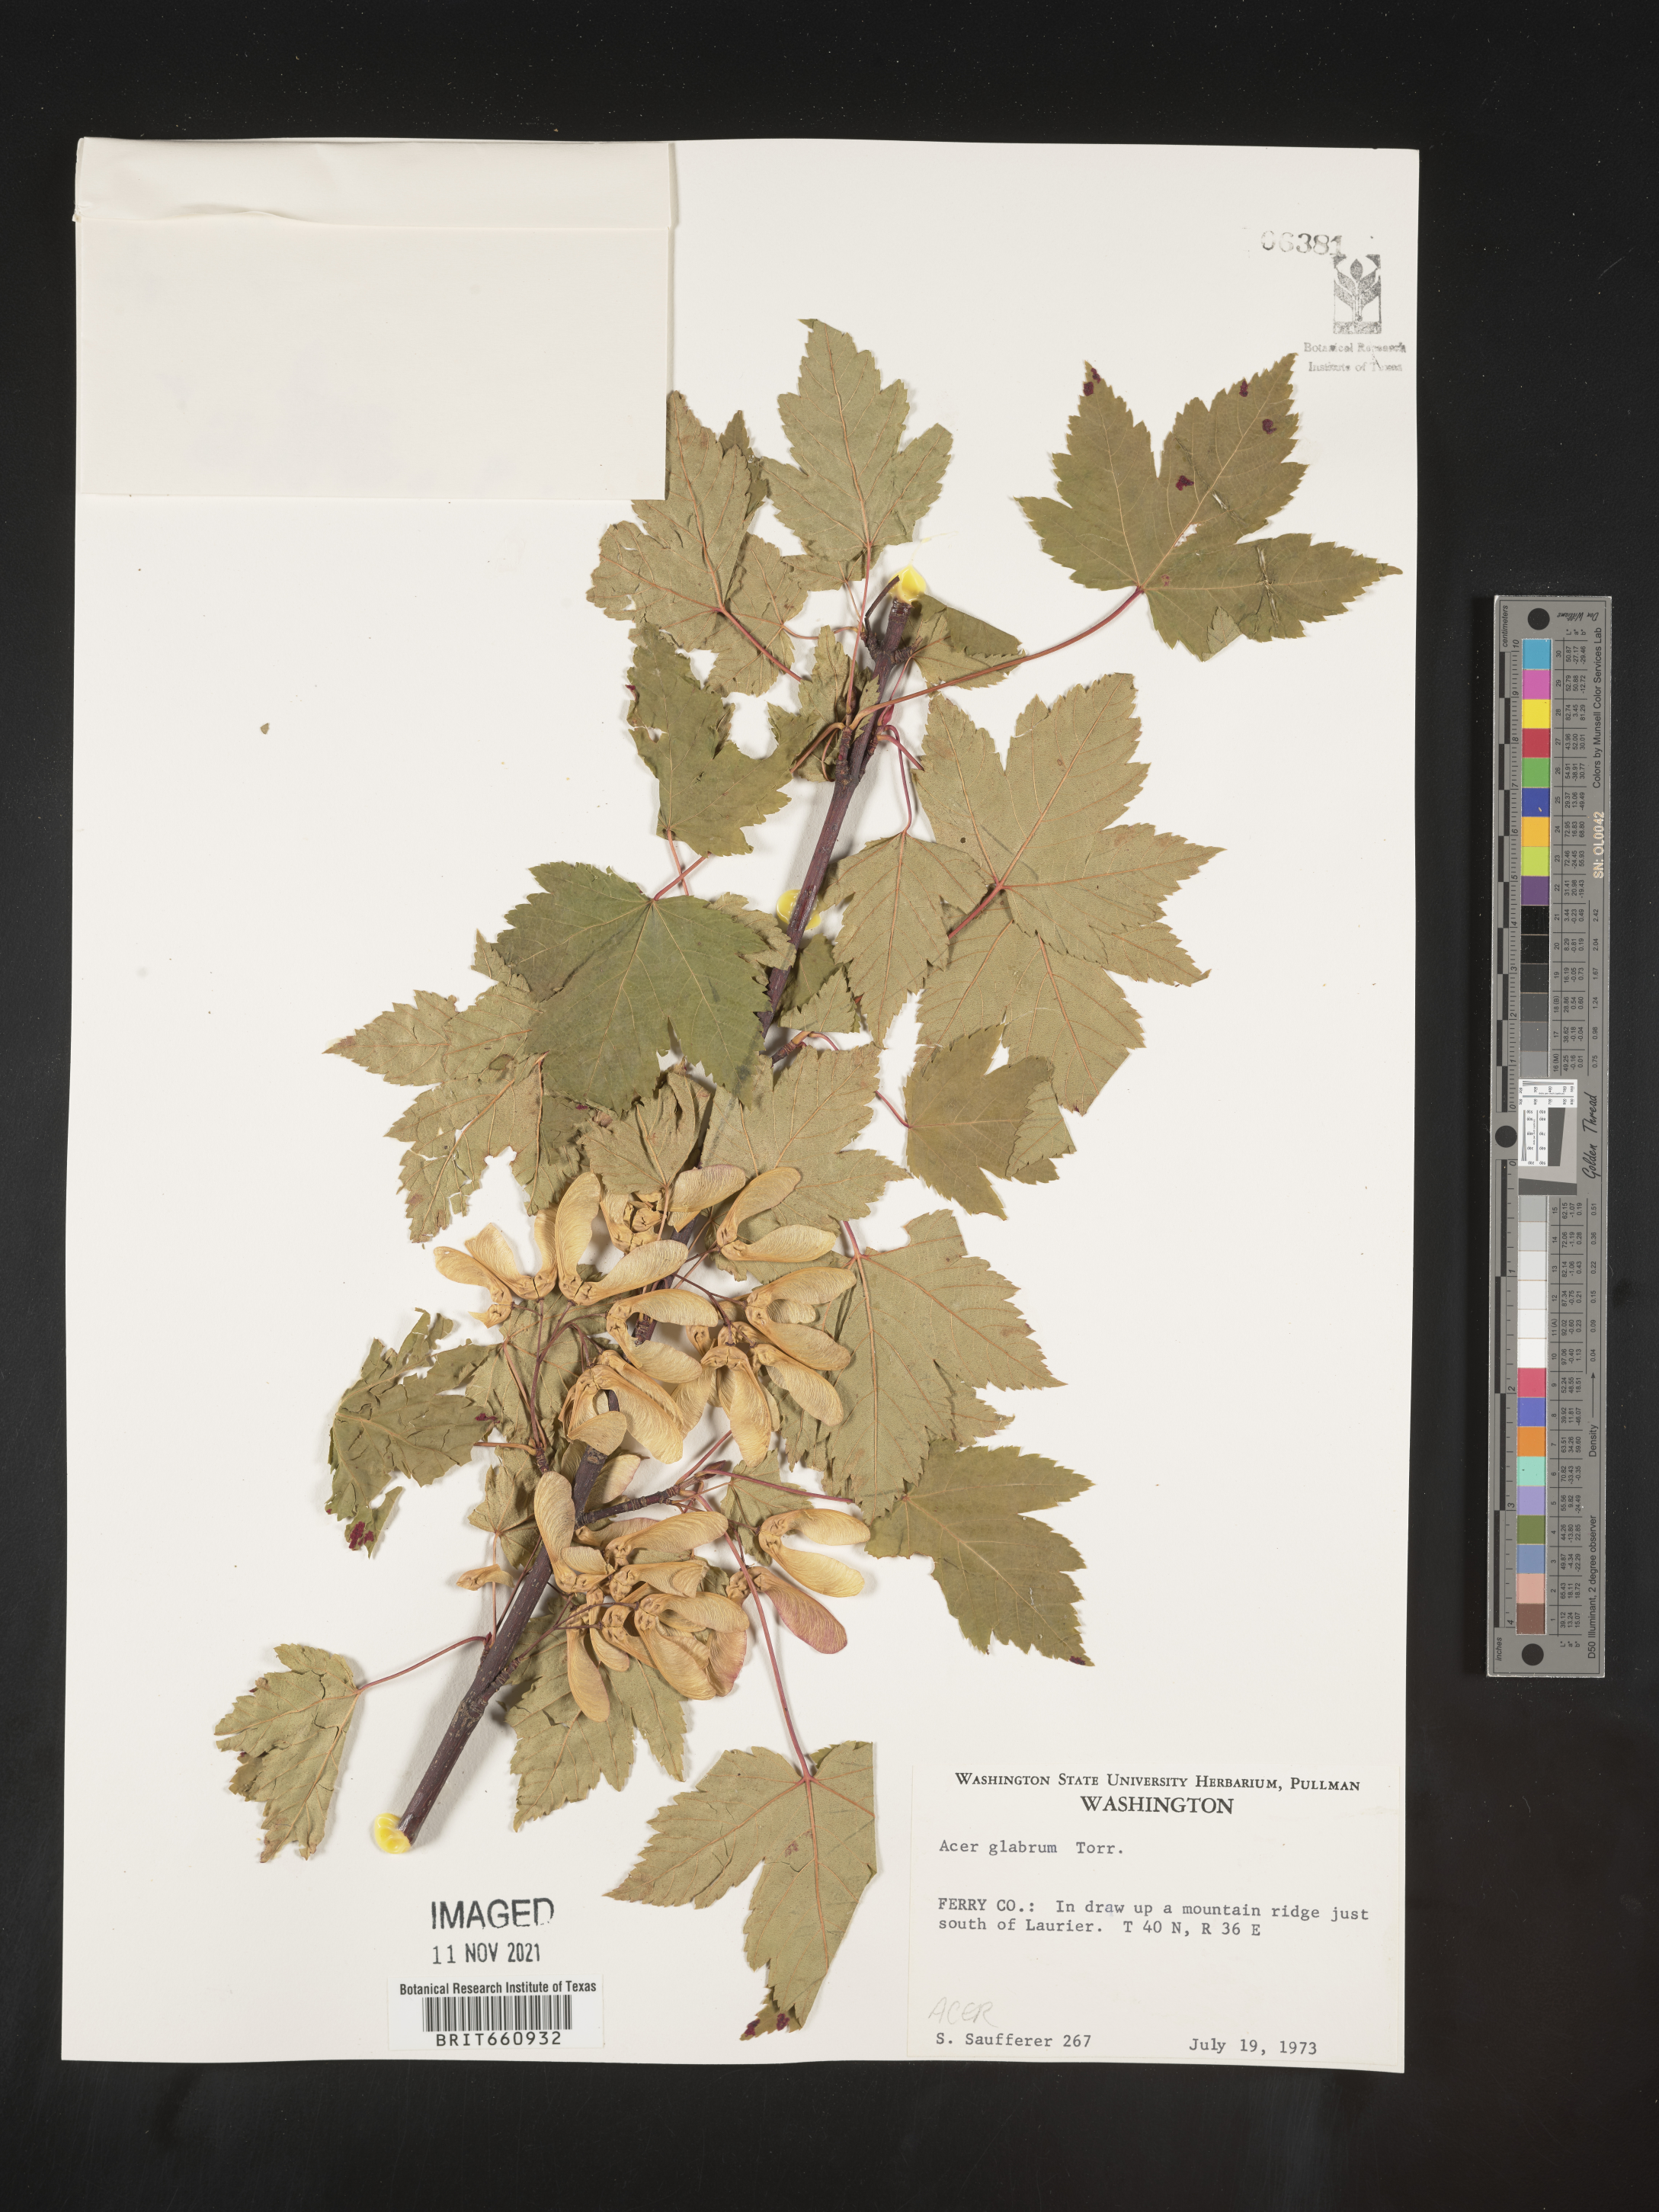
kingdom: Plantae
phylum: Tracheophyta
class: Magnoliopsida
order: Sapindales
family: Sapindaceae
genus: Acer
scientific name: Acer glabrum
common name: Rocky mountain maple
